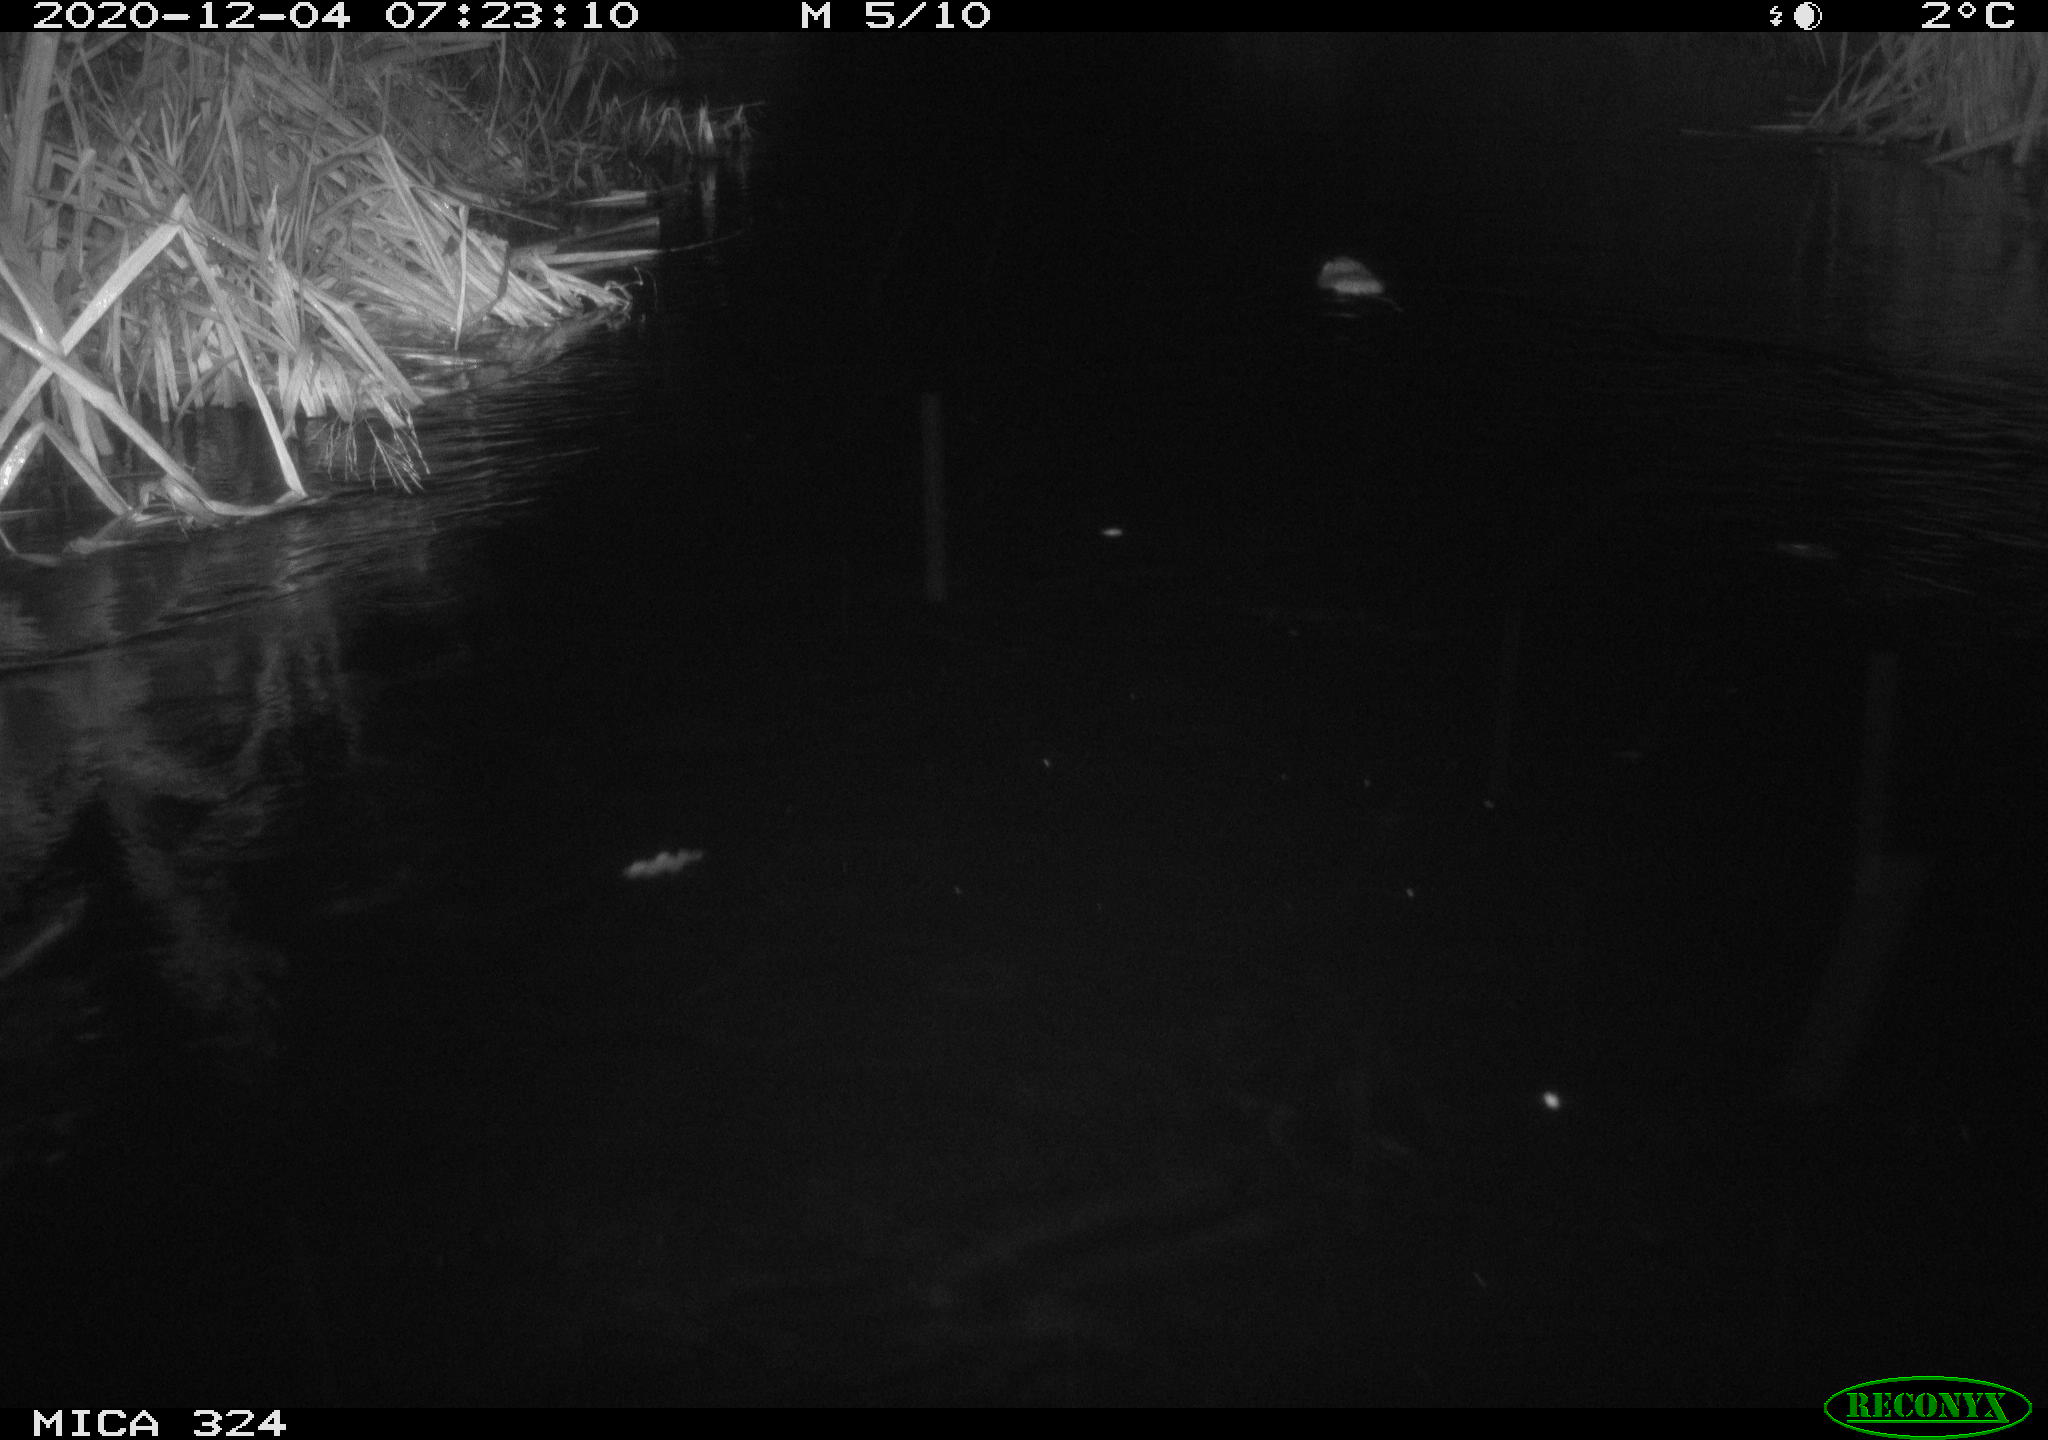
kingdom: Animalia
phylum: Chordata
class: Mammalia
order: Rodentia
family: Cricetidae
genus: Ondatra
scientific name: Ondatra zibethicus
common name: Muskrat
